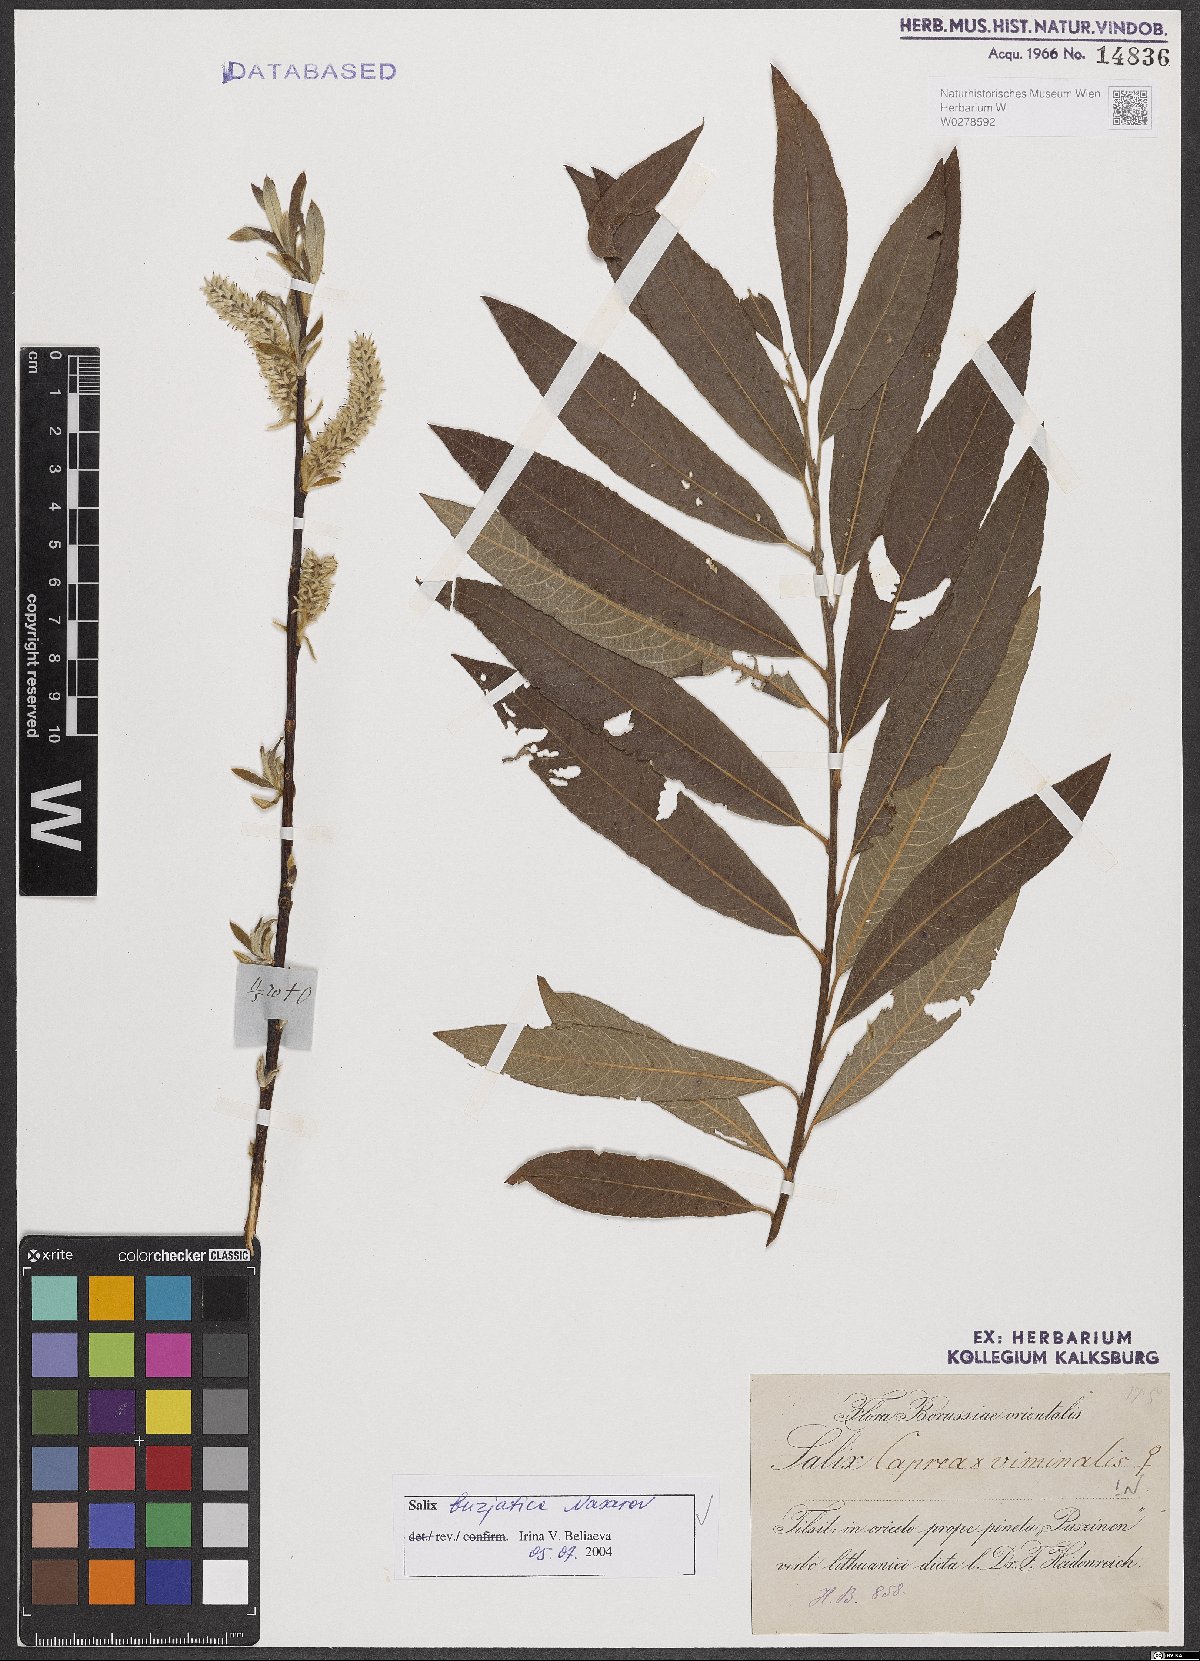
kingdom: Plantae
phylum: Tracheophyta
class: Magnoliopsida
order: Malpighiales
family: Salicaceae
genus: Salix
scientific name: Salix gmelinii
